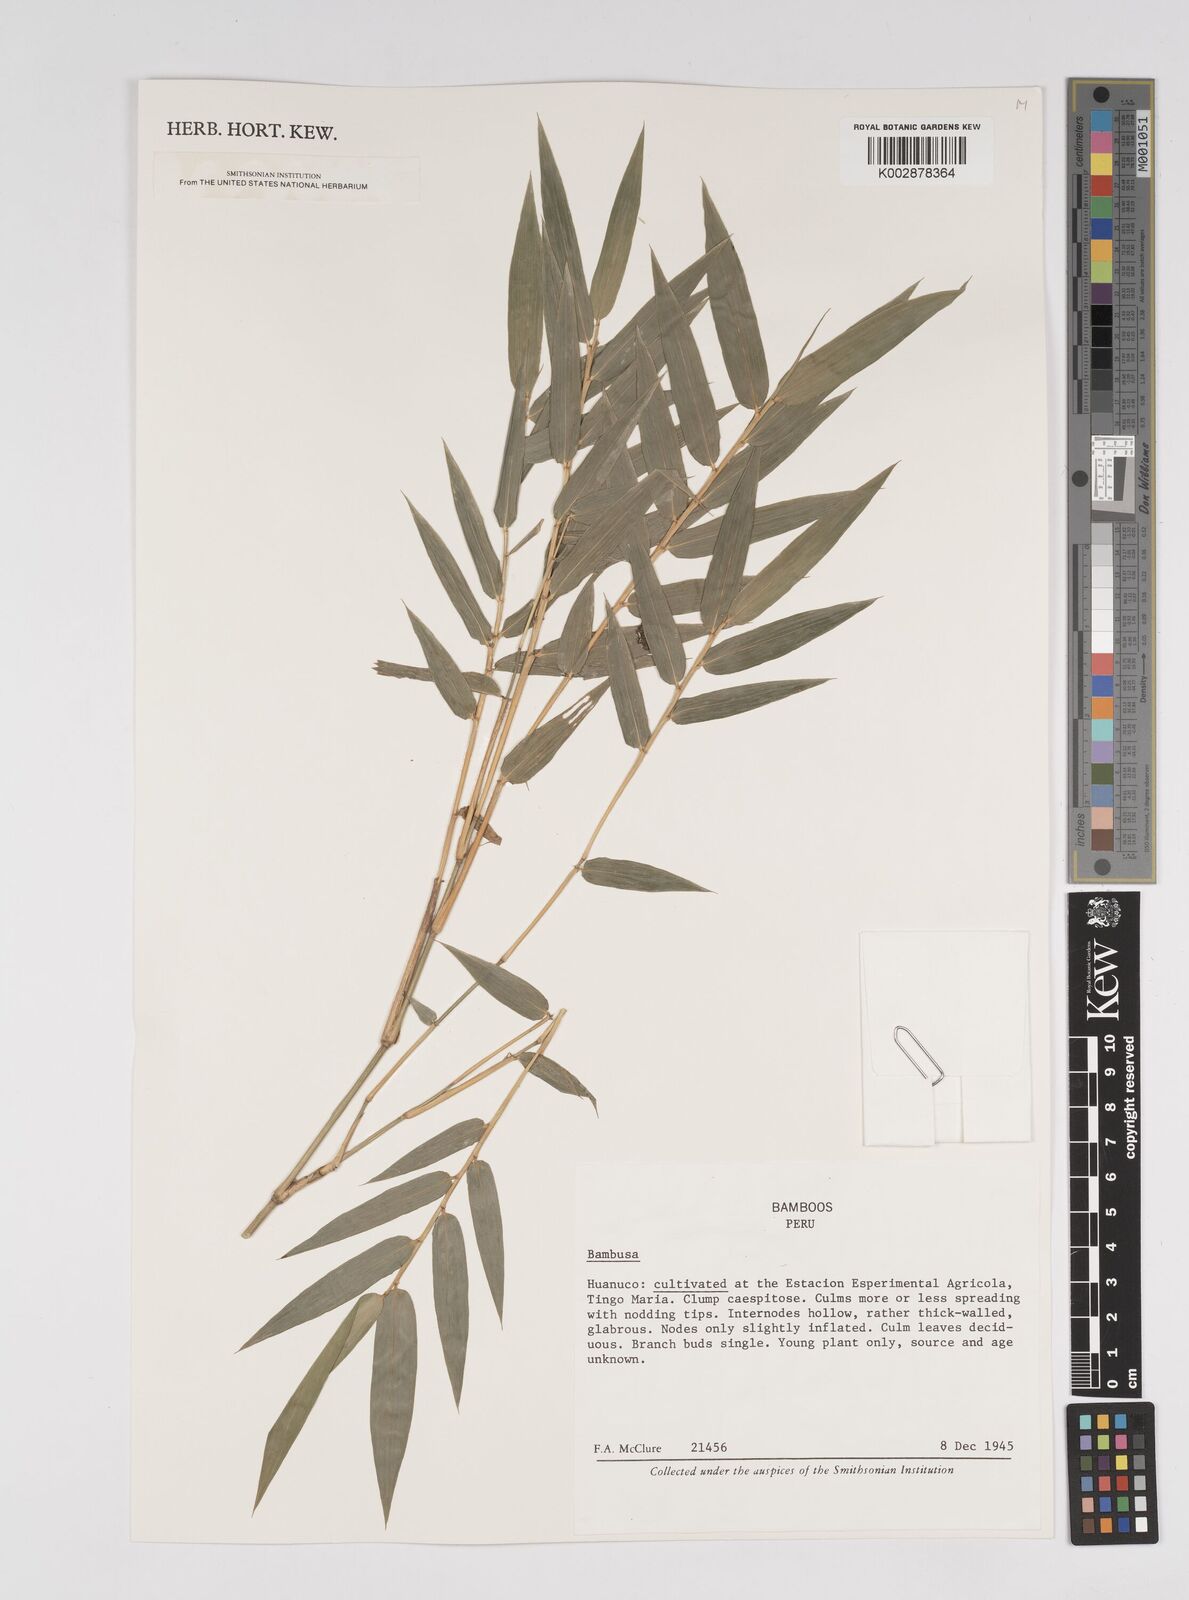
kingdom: Plantae
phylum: Tracheophyta
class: Liliopsida
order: Poales
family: Poaceae
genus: Bambusa
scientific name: Bambusa
